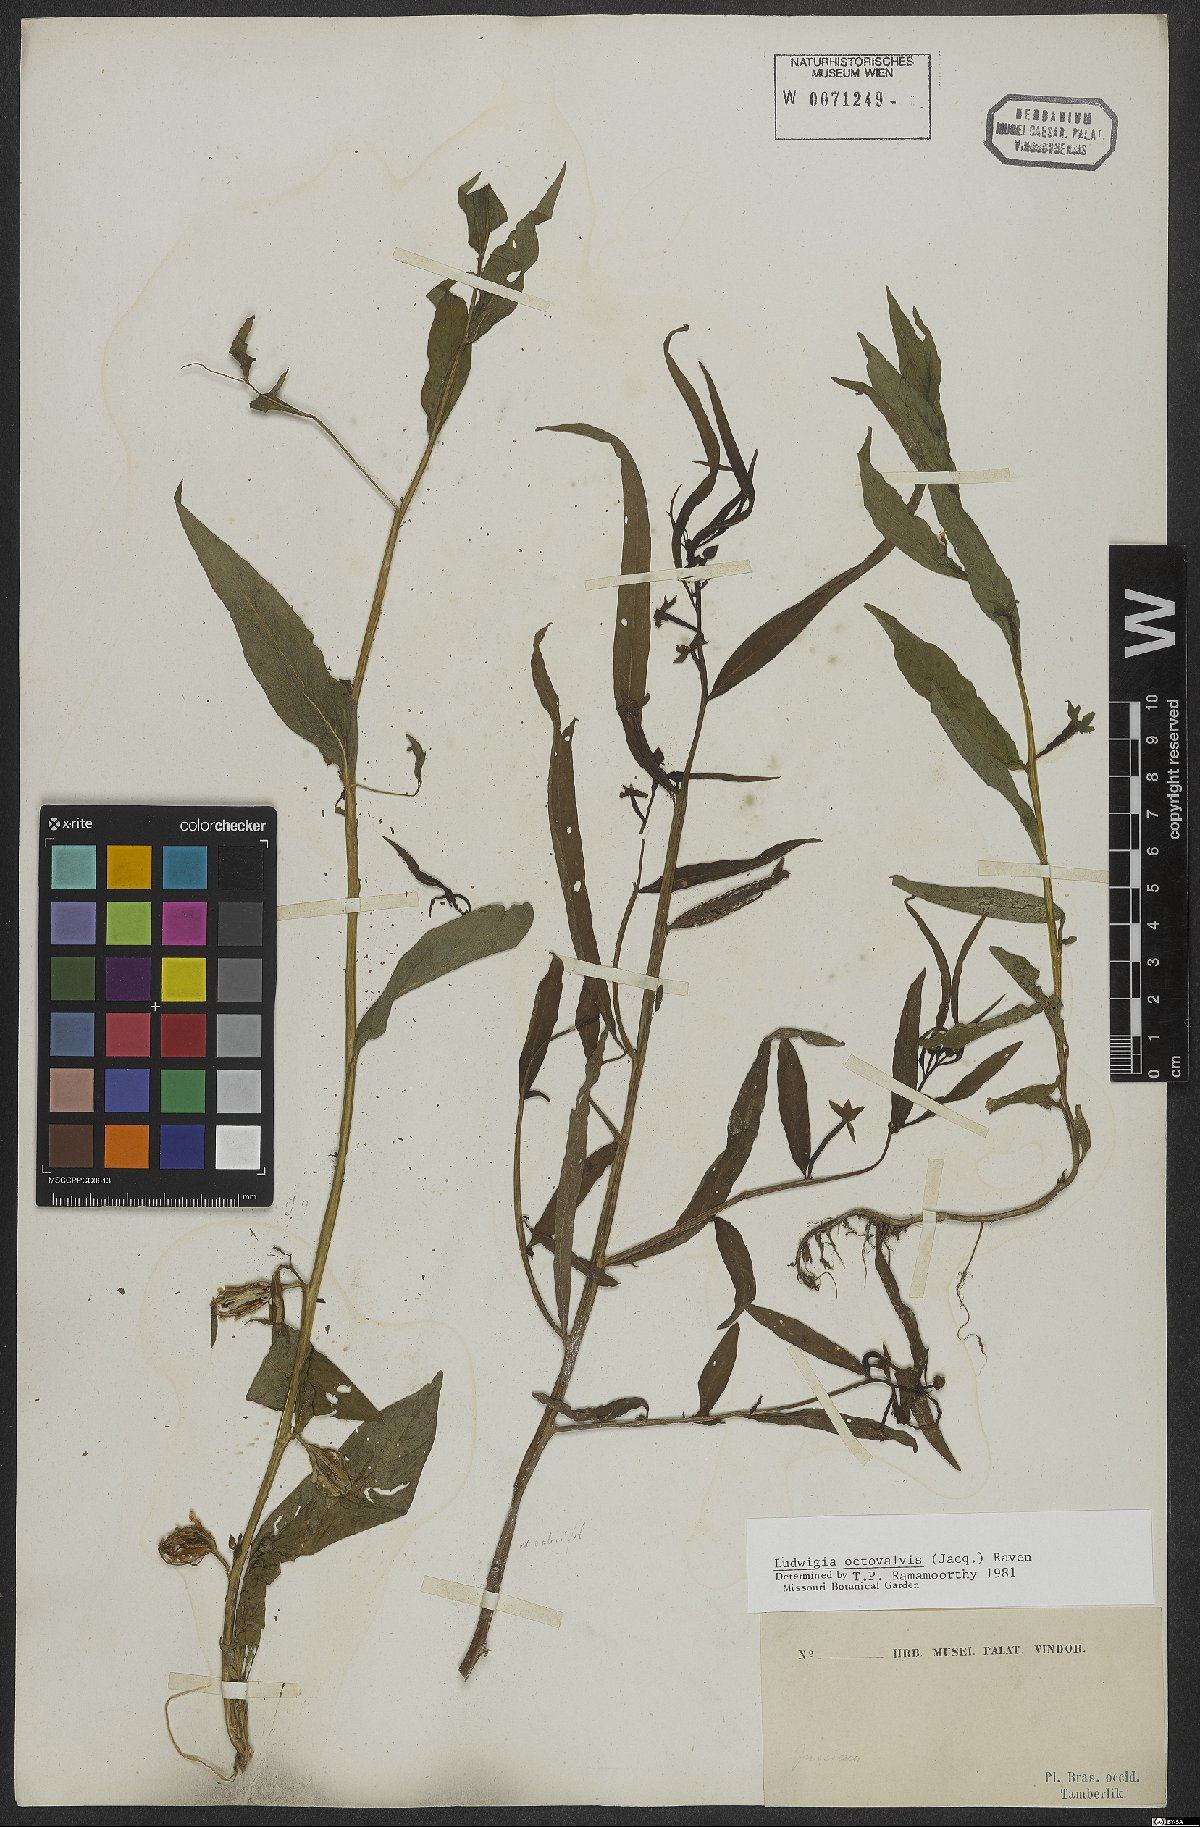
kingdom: Plantae
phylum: Tracheophyta
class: Magnoliopsida
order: Myrtales
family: Onagraceae
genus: Ludwigia
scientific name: Ludwigia octovalvis
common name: Water-primrose
